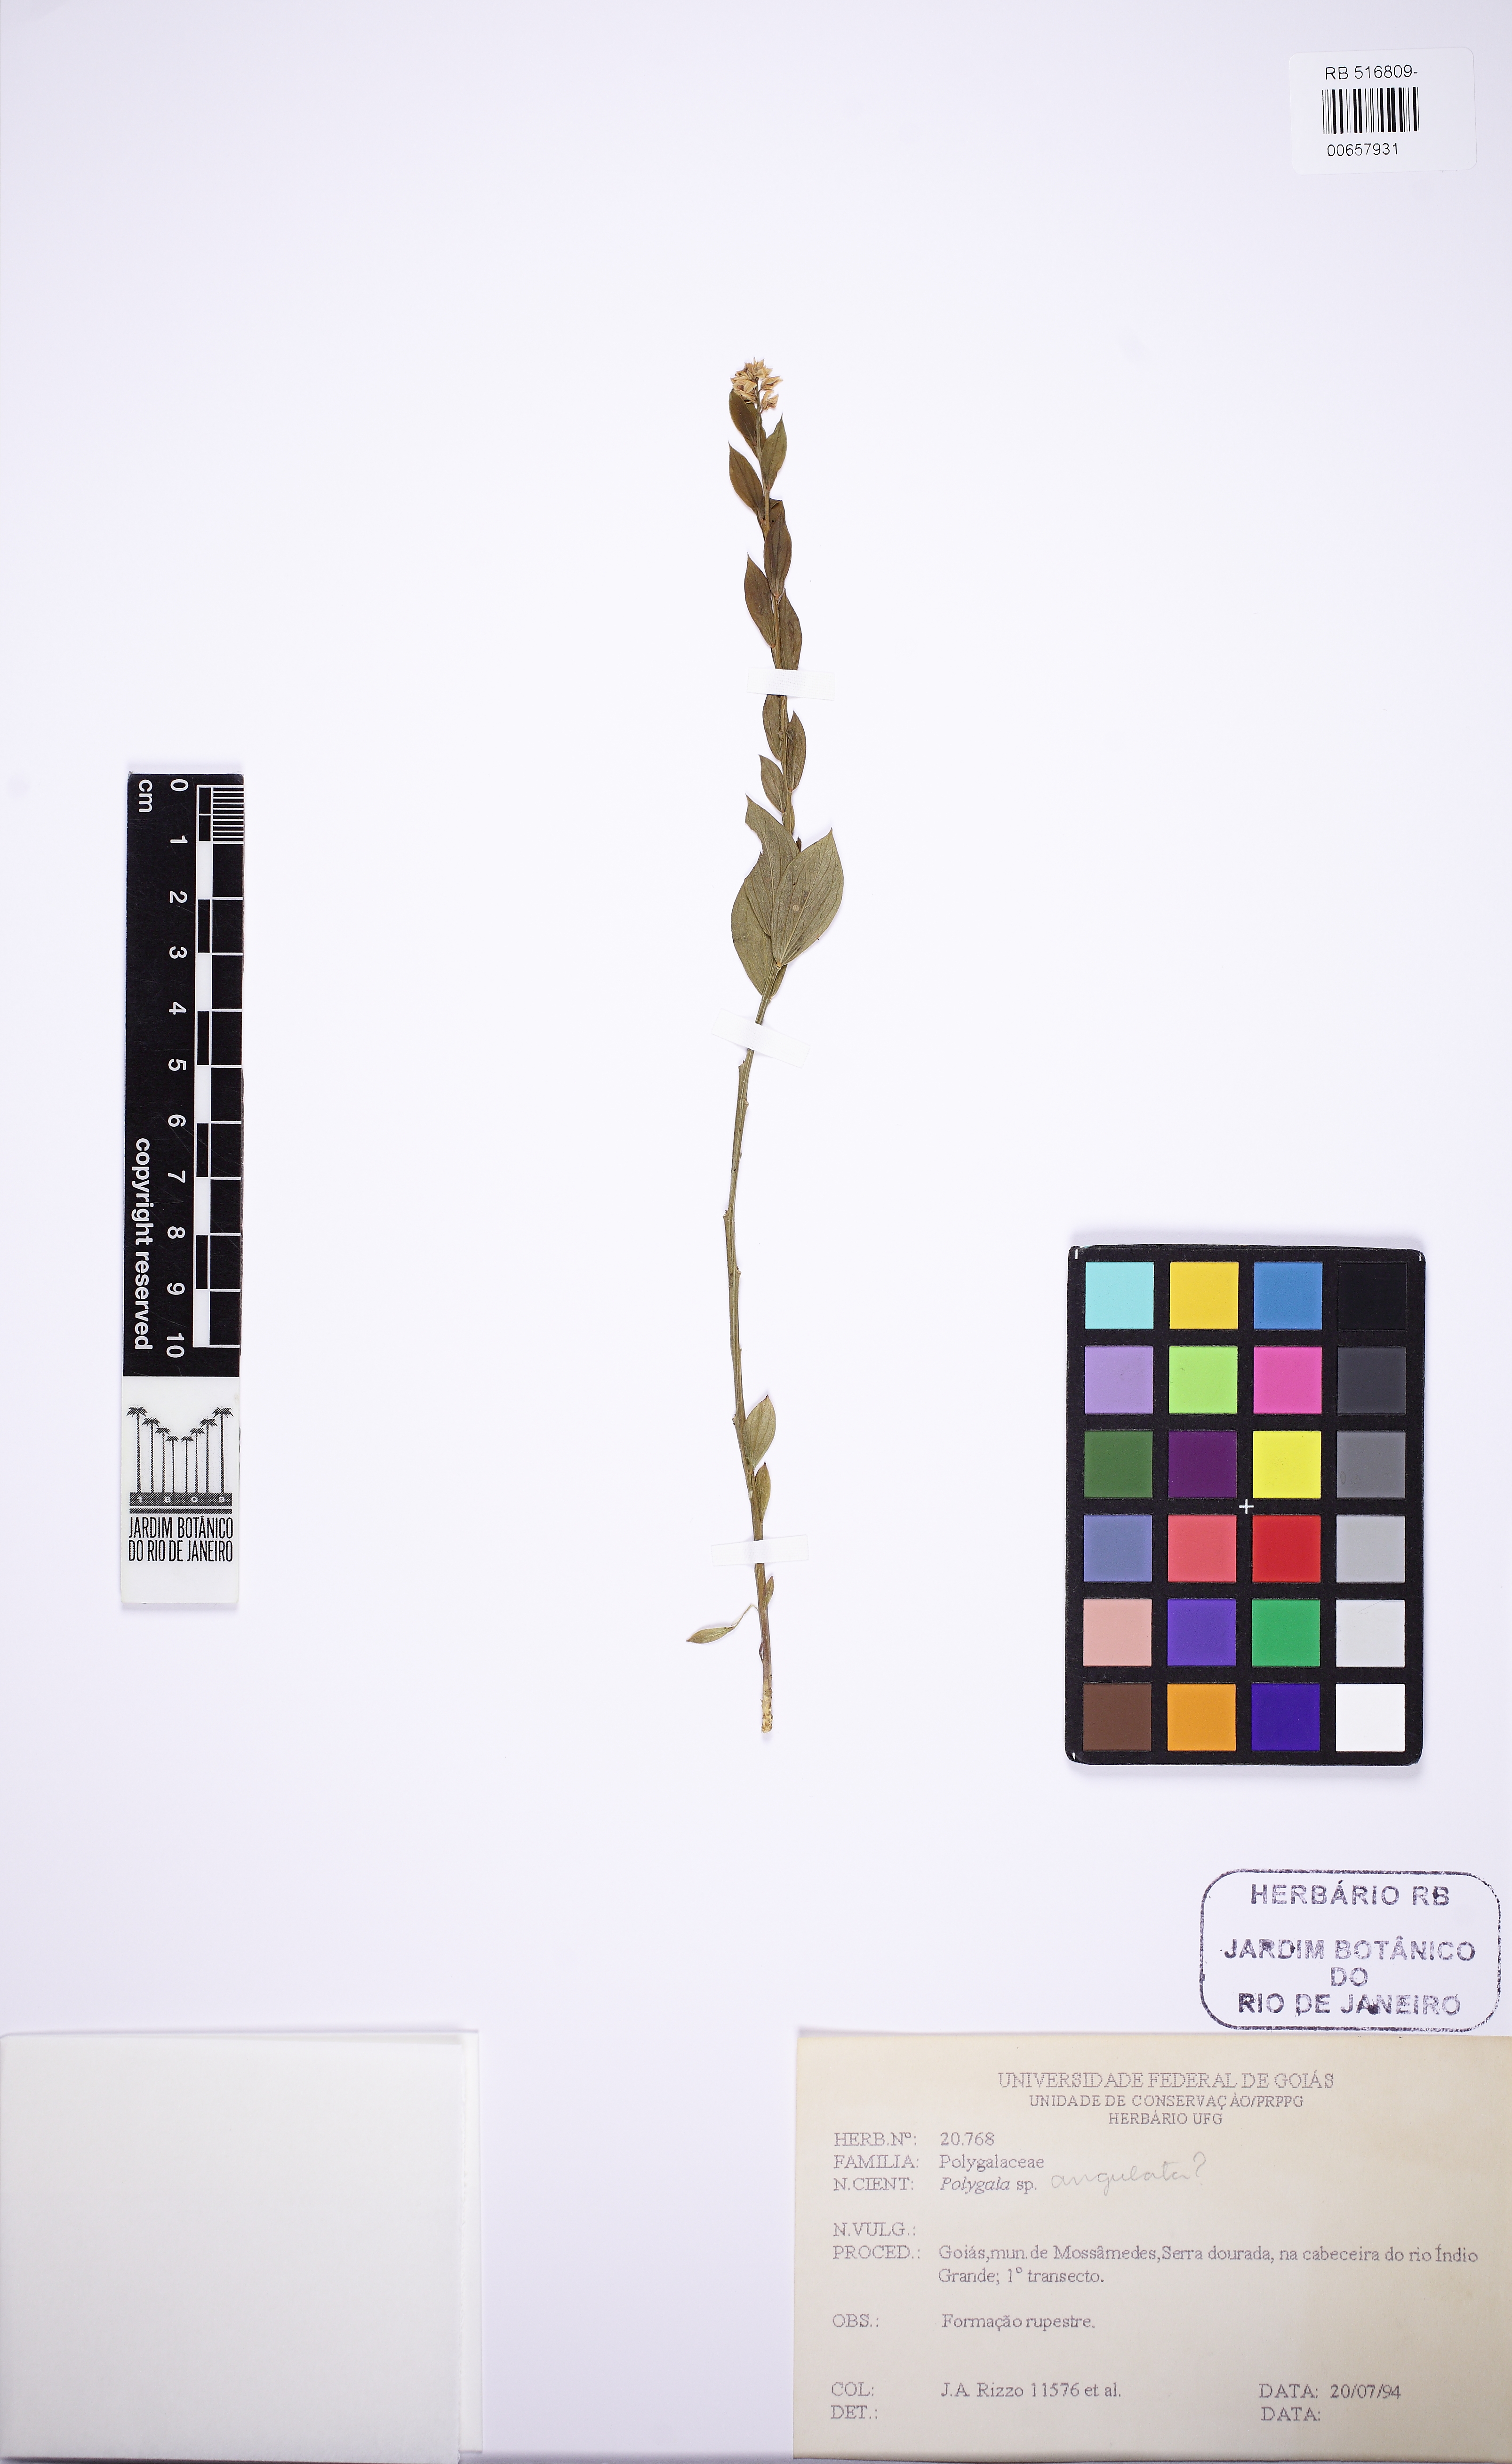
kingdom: Plantae
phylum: Tracheophyta
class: Magnoliopsida
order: Fabales
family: Polygalaceae
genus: Polygala
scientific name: Polygala poaya
